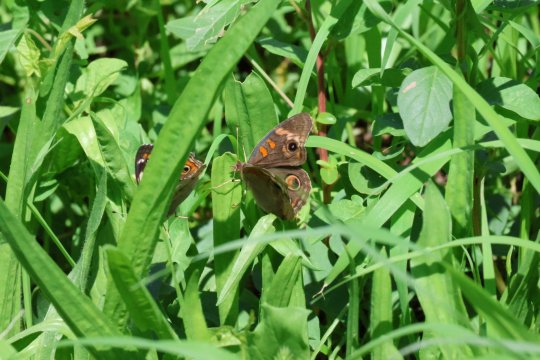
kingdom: Animalia
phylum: Arthropoda
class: Insecta
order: Lepidoptera
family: Nymphalidae
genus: Junonia
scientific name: Junonia coenia
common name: Common Buckeye
